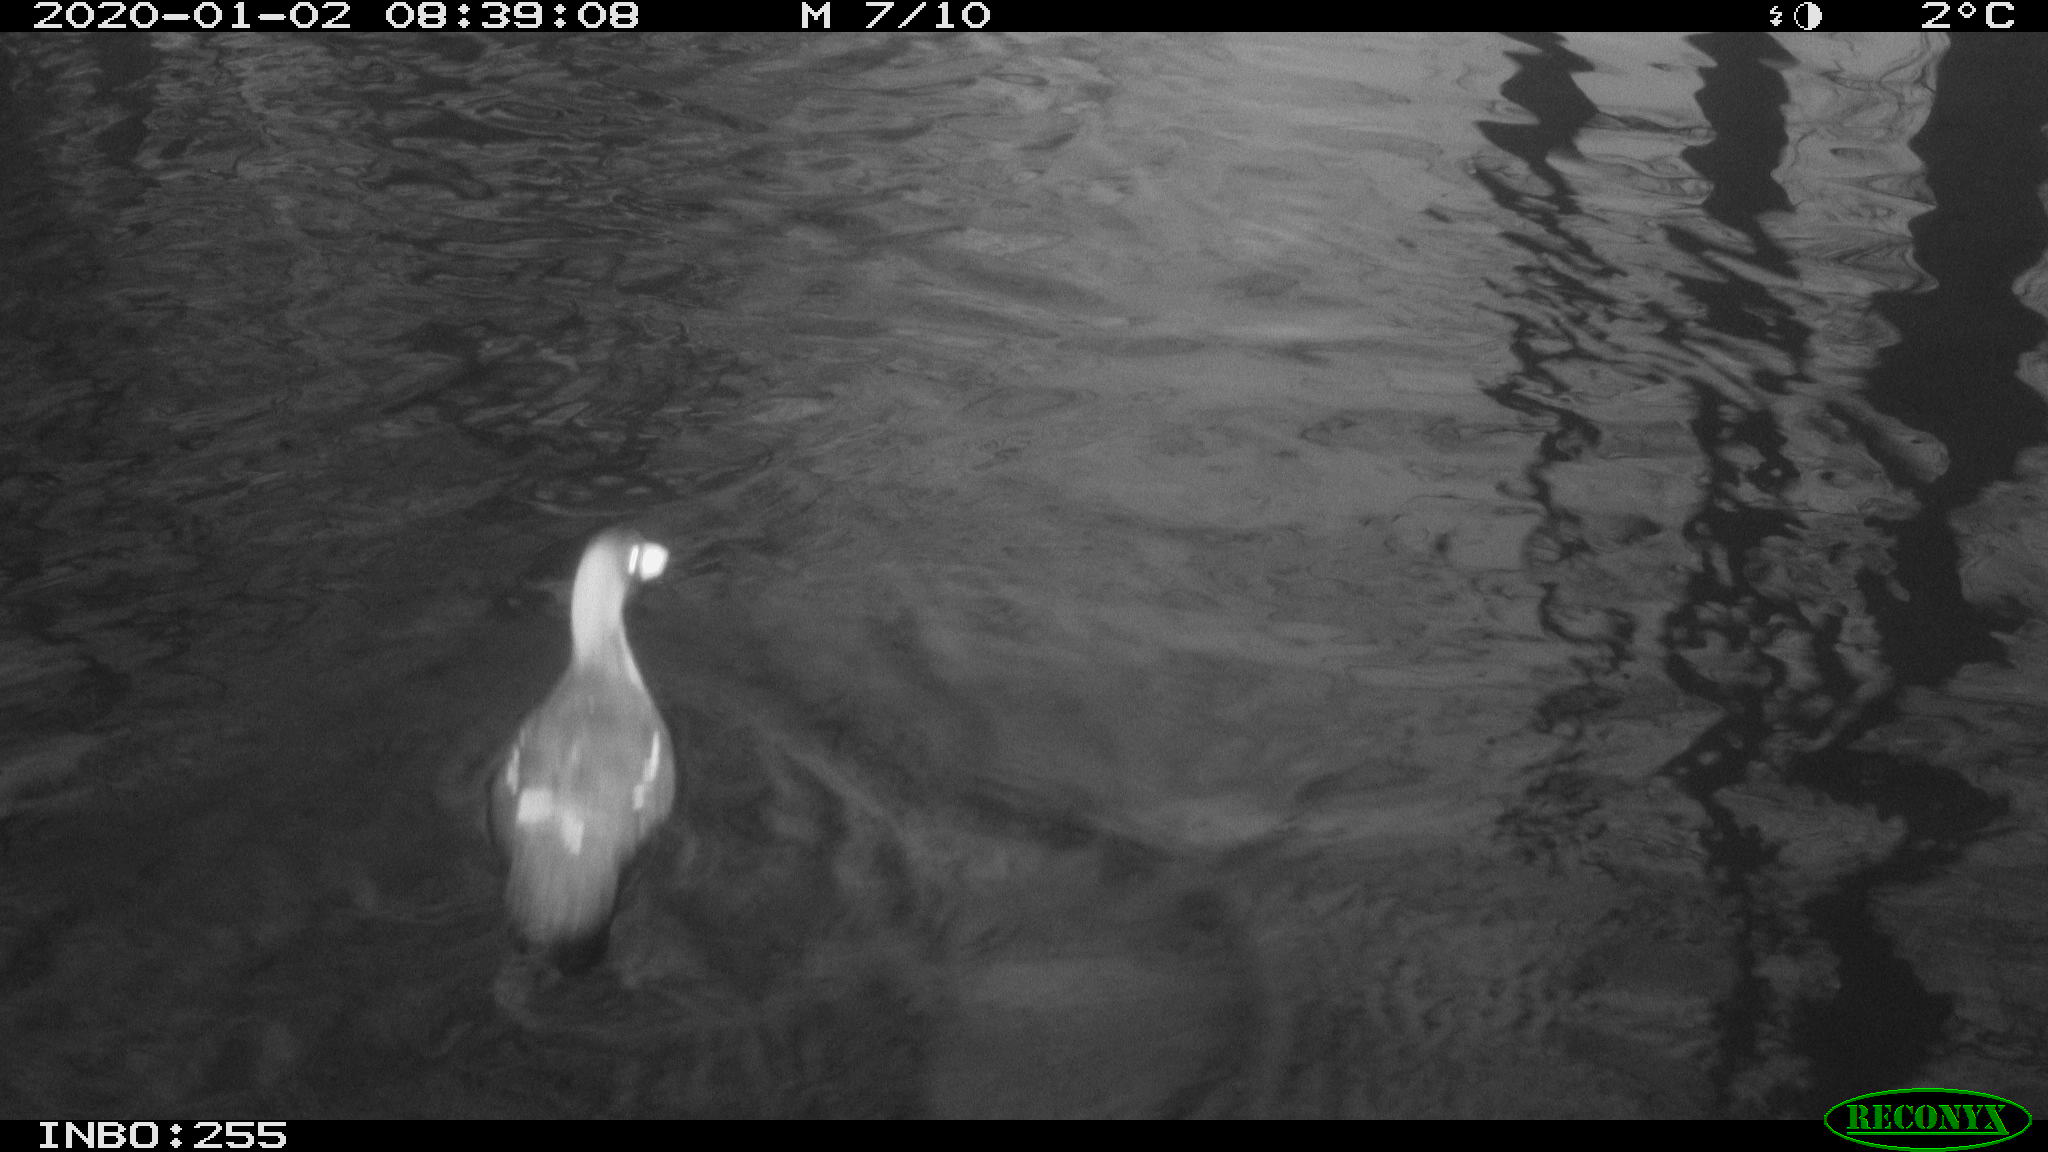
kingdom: Animalia
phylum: Chordata
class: Aves
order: Gruiformes
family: Rallidae
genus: Gallinula
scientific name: Gallinula chloropus
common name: Common moorhen
